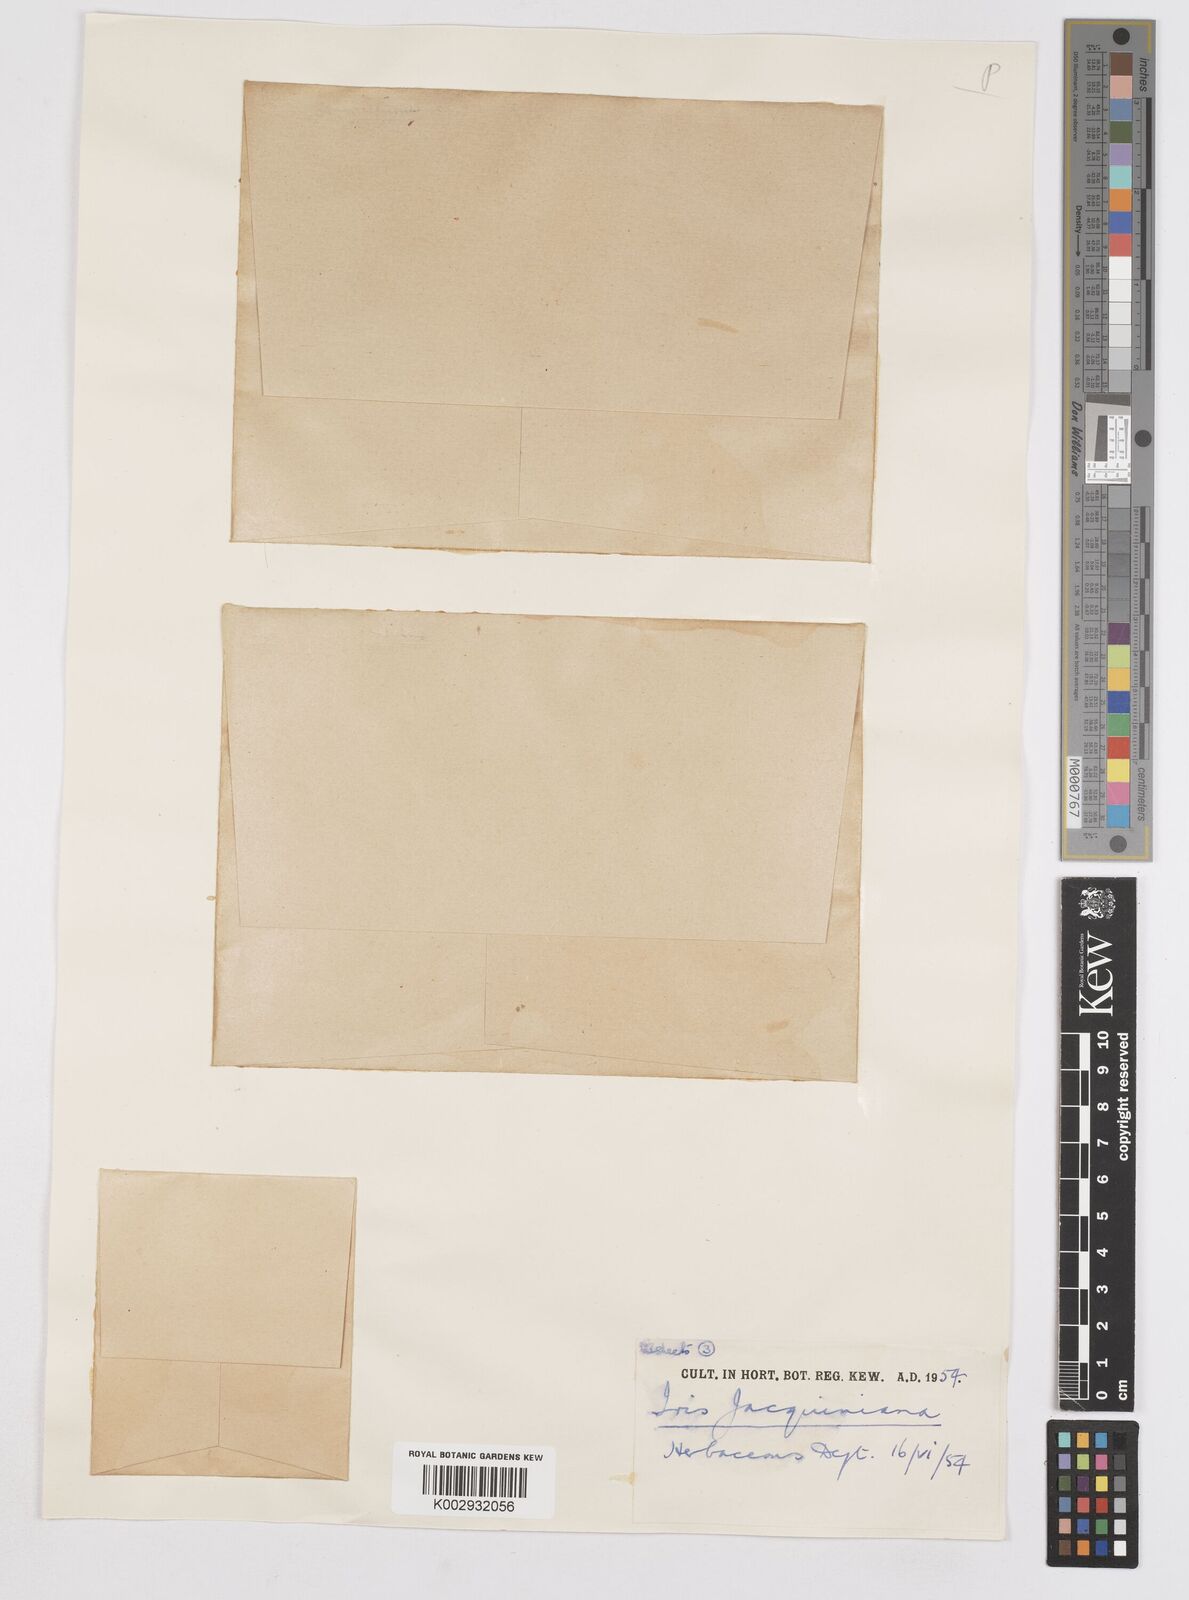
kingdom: Plantae
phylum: Tracheophyta
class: Liliopsida
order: Asparagales
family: Iridaceae
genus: Iris
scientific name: Iris
